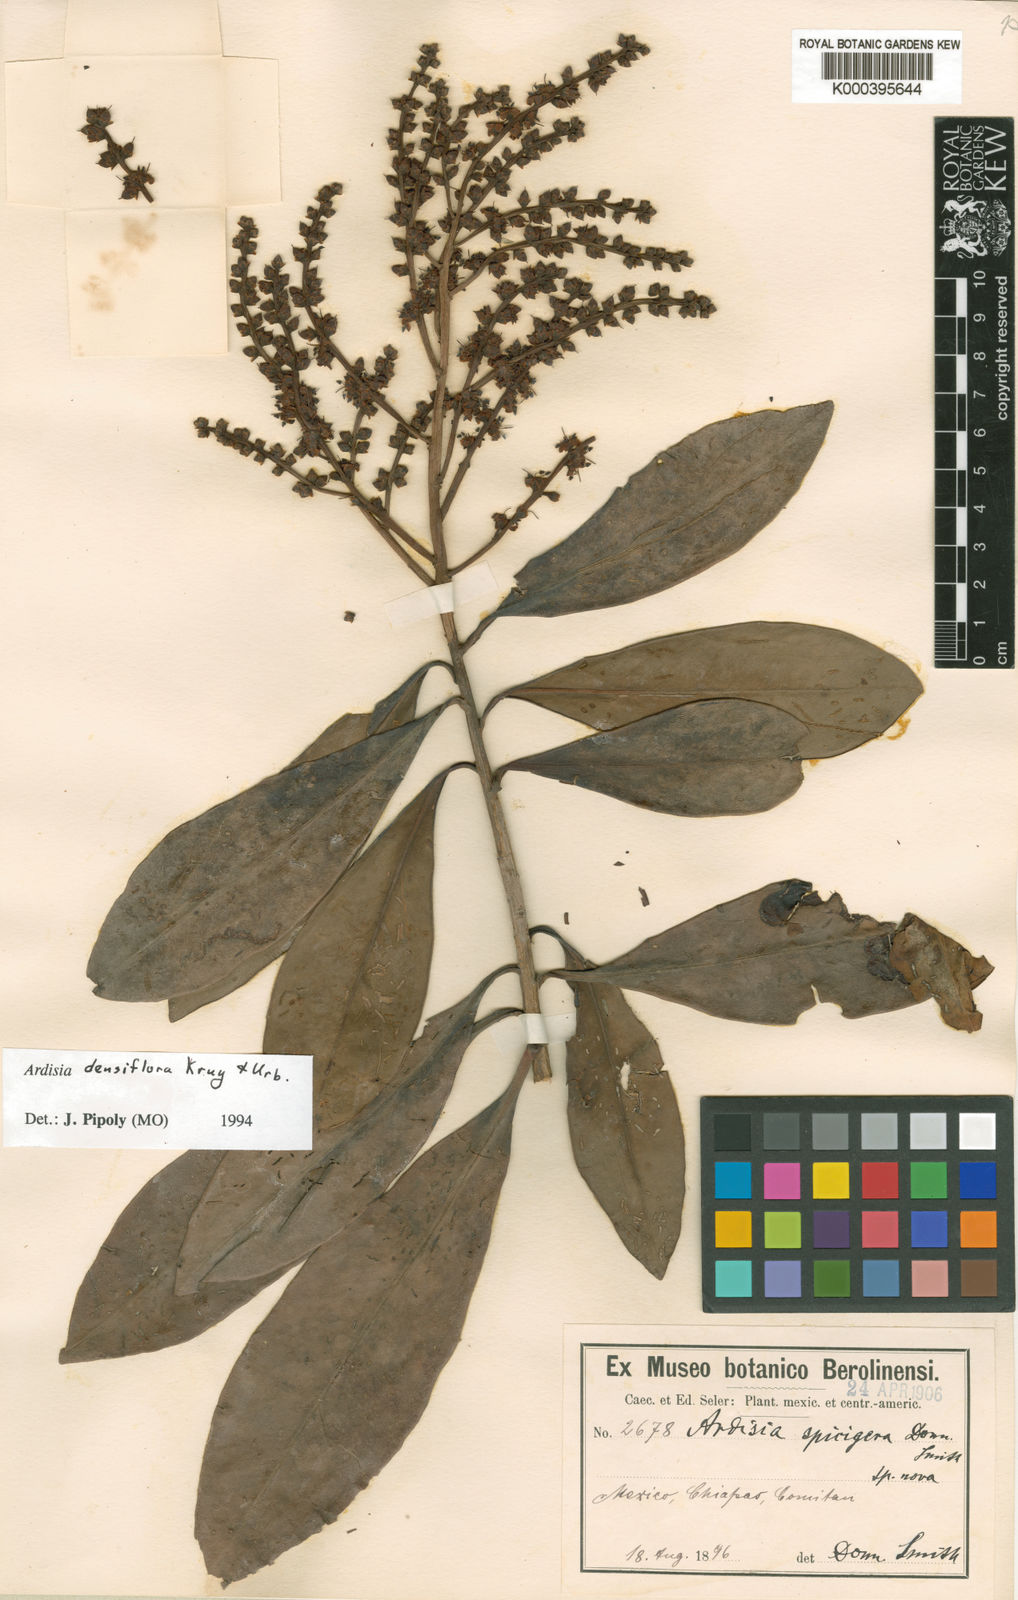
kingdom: Plantae
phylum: Tracheophyta
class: Magnoliopsida
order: Ericales
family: Primulaceae
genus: Ardisia
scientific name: Ardisia bracteosa
